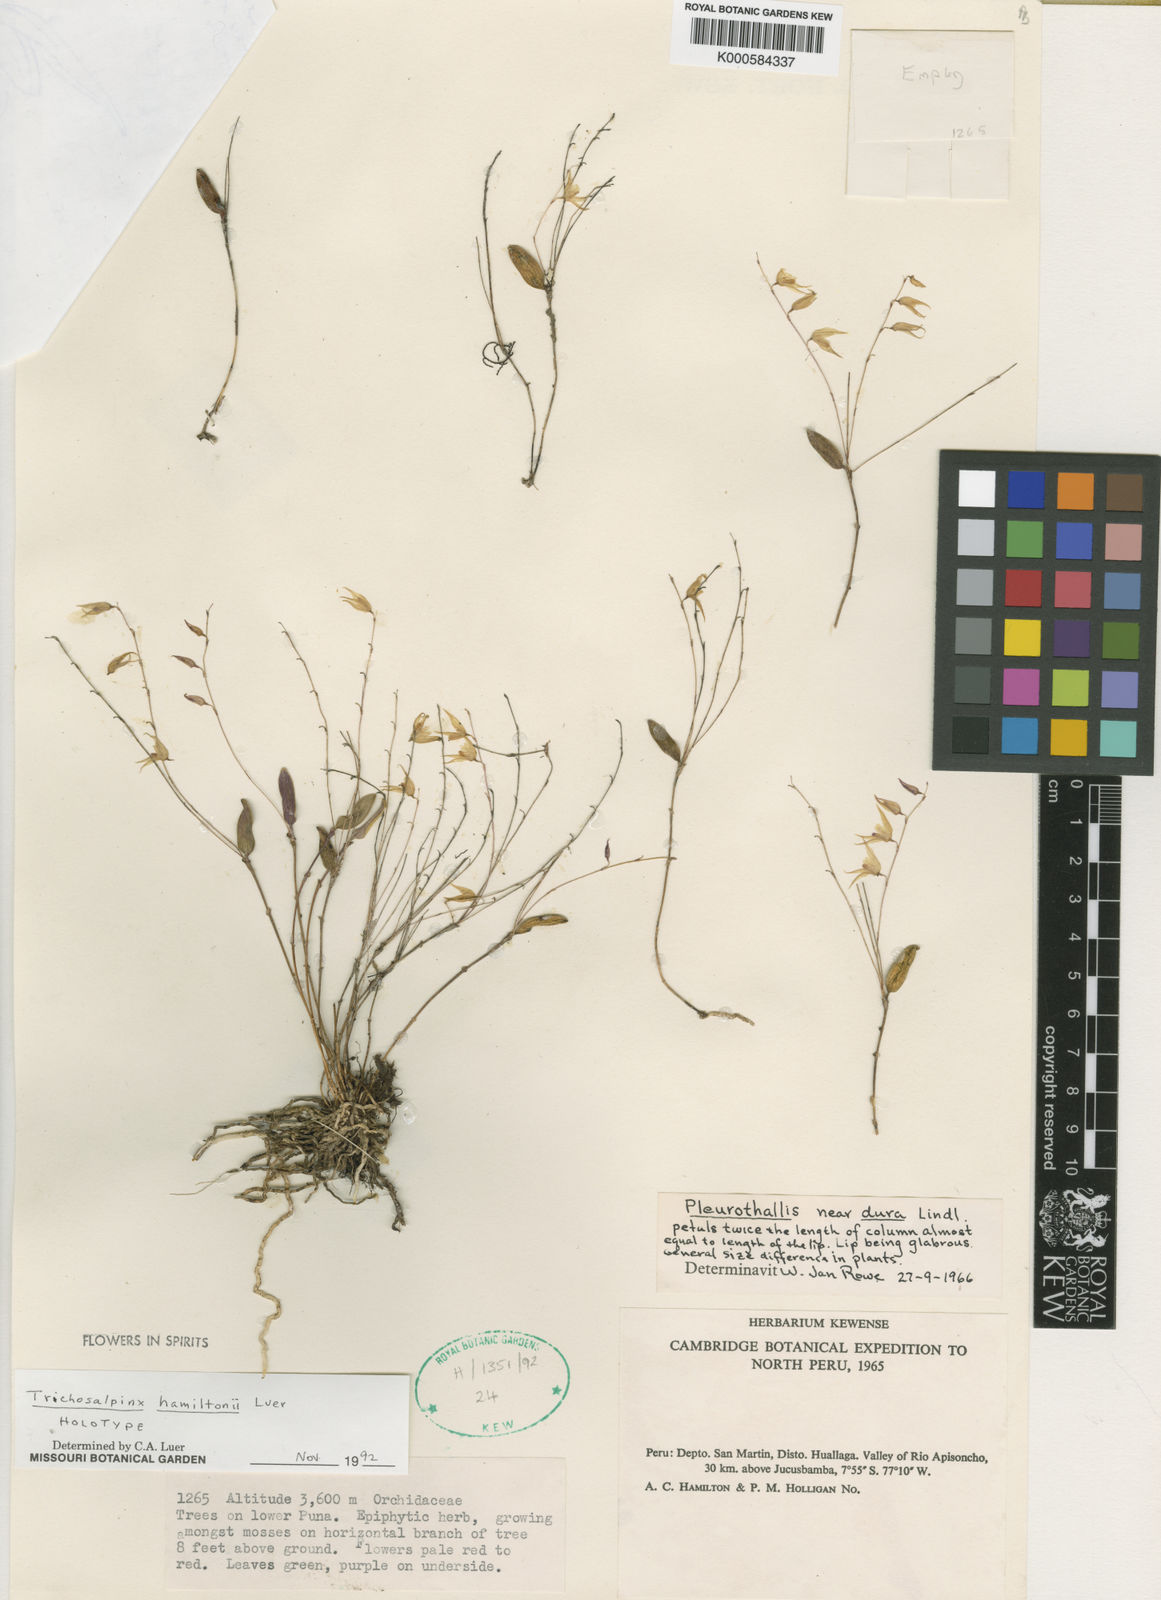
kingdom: Plantae
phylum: Tracheophyta
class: Liliopsida
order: Asparagales
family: Orchidaceae
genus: Lepanthes
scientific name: Lepanthes hamiltonii
